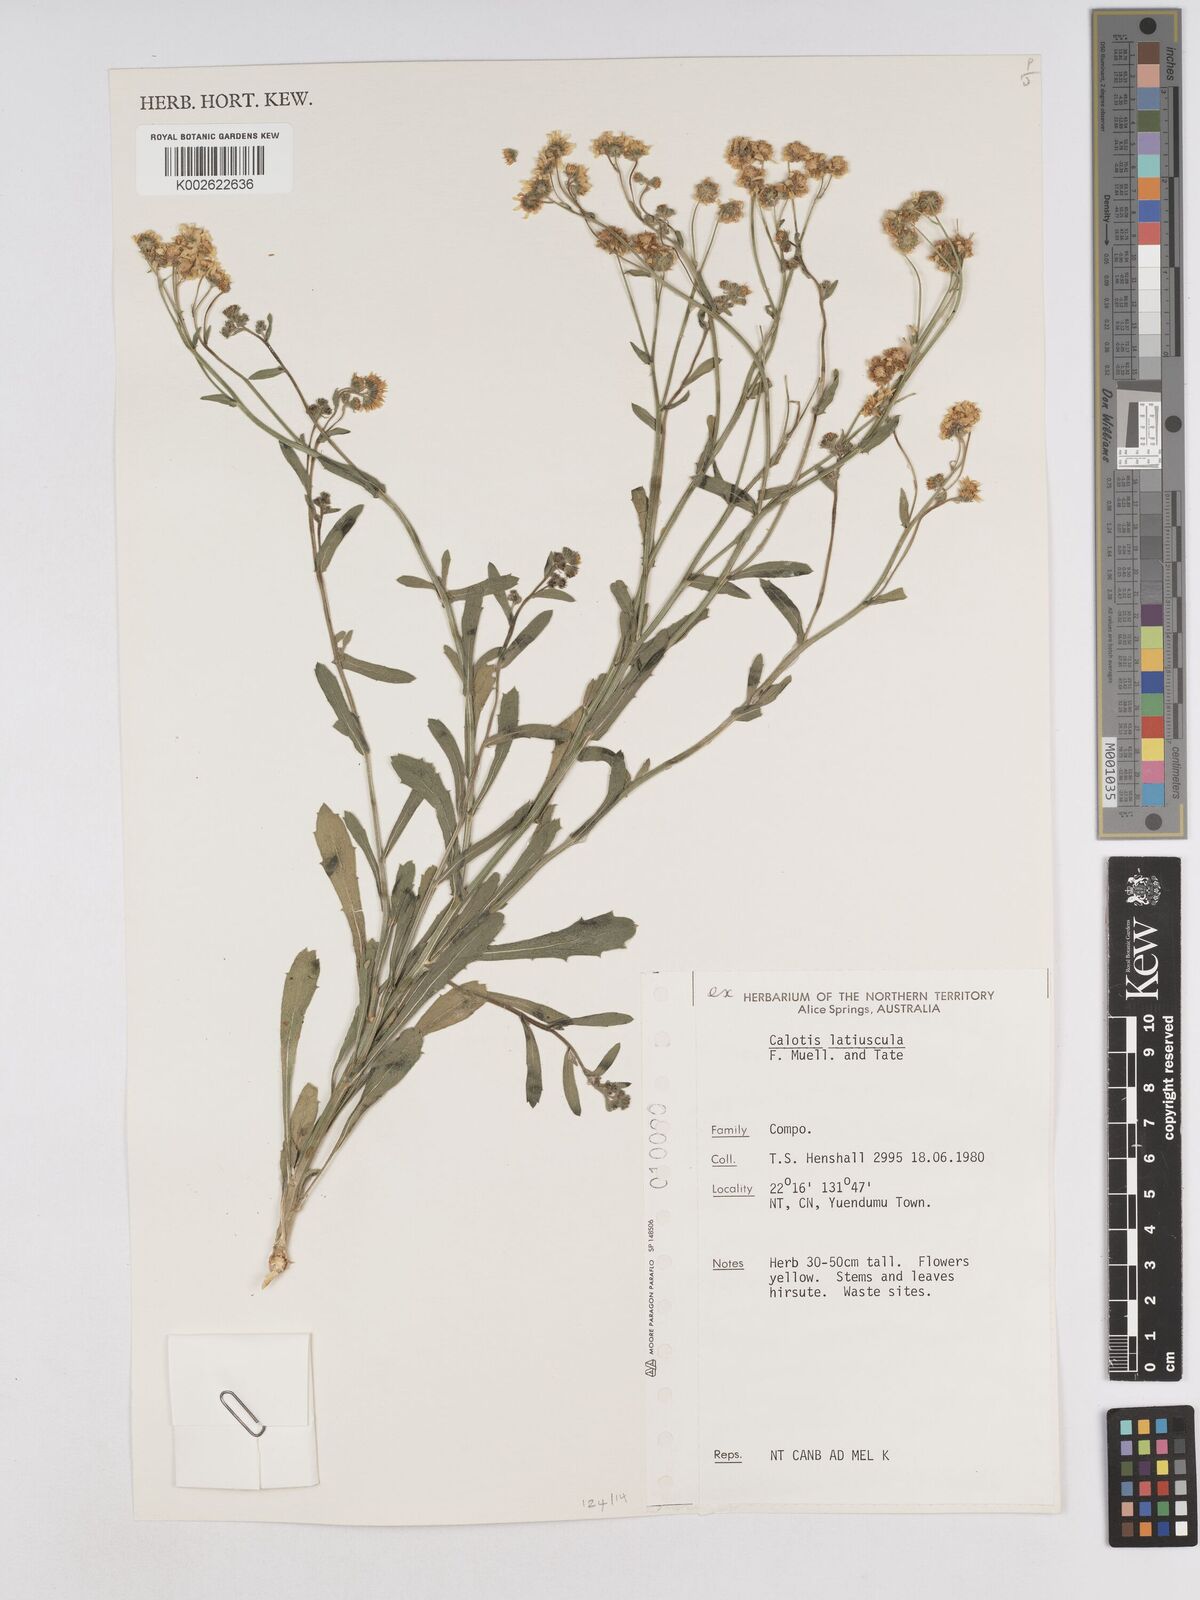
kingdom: Plantae
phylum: Tracheophyta
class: Magnoliopsida
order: Asterales
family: Asteraceae
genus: Calotis
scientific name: Calotis latiuscula
